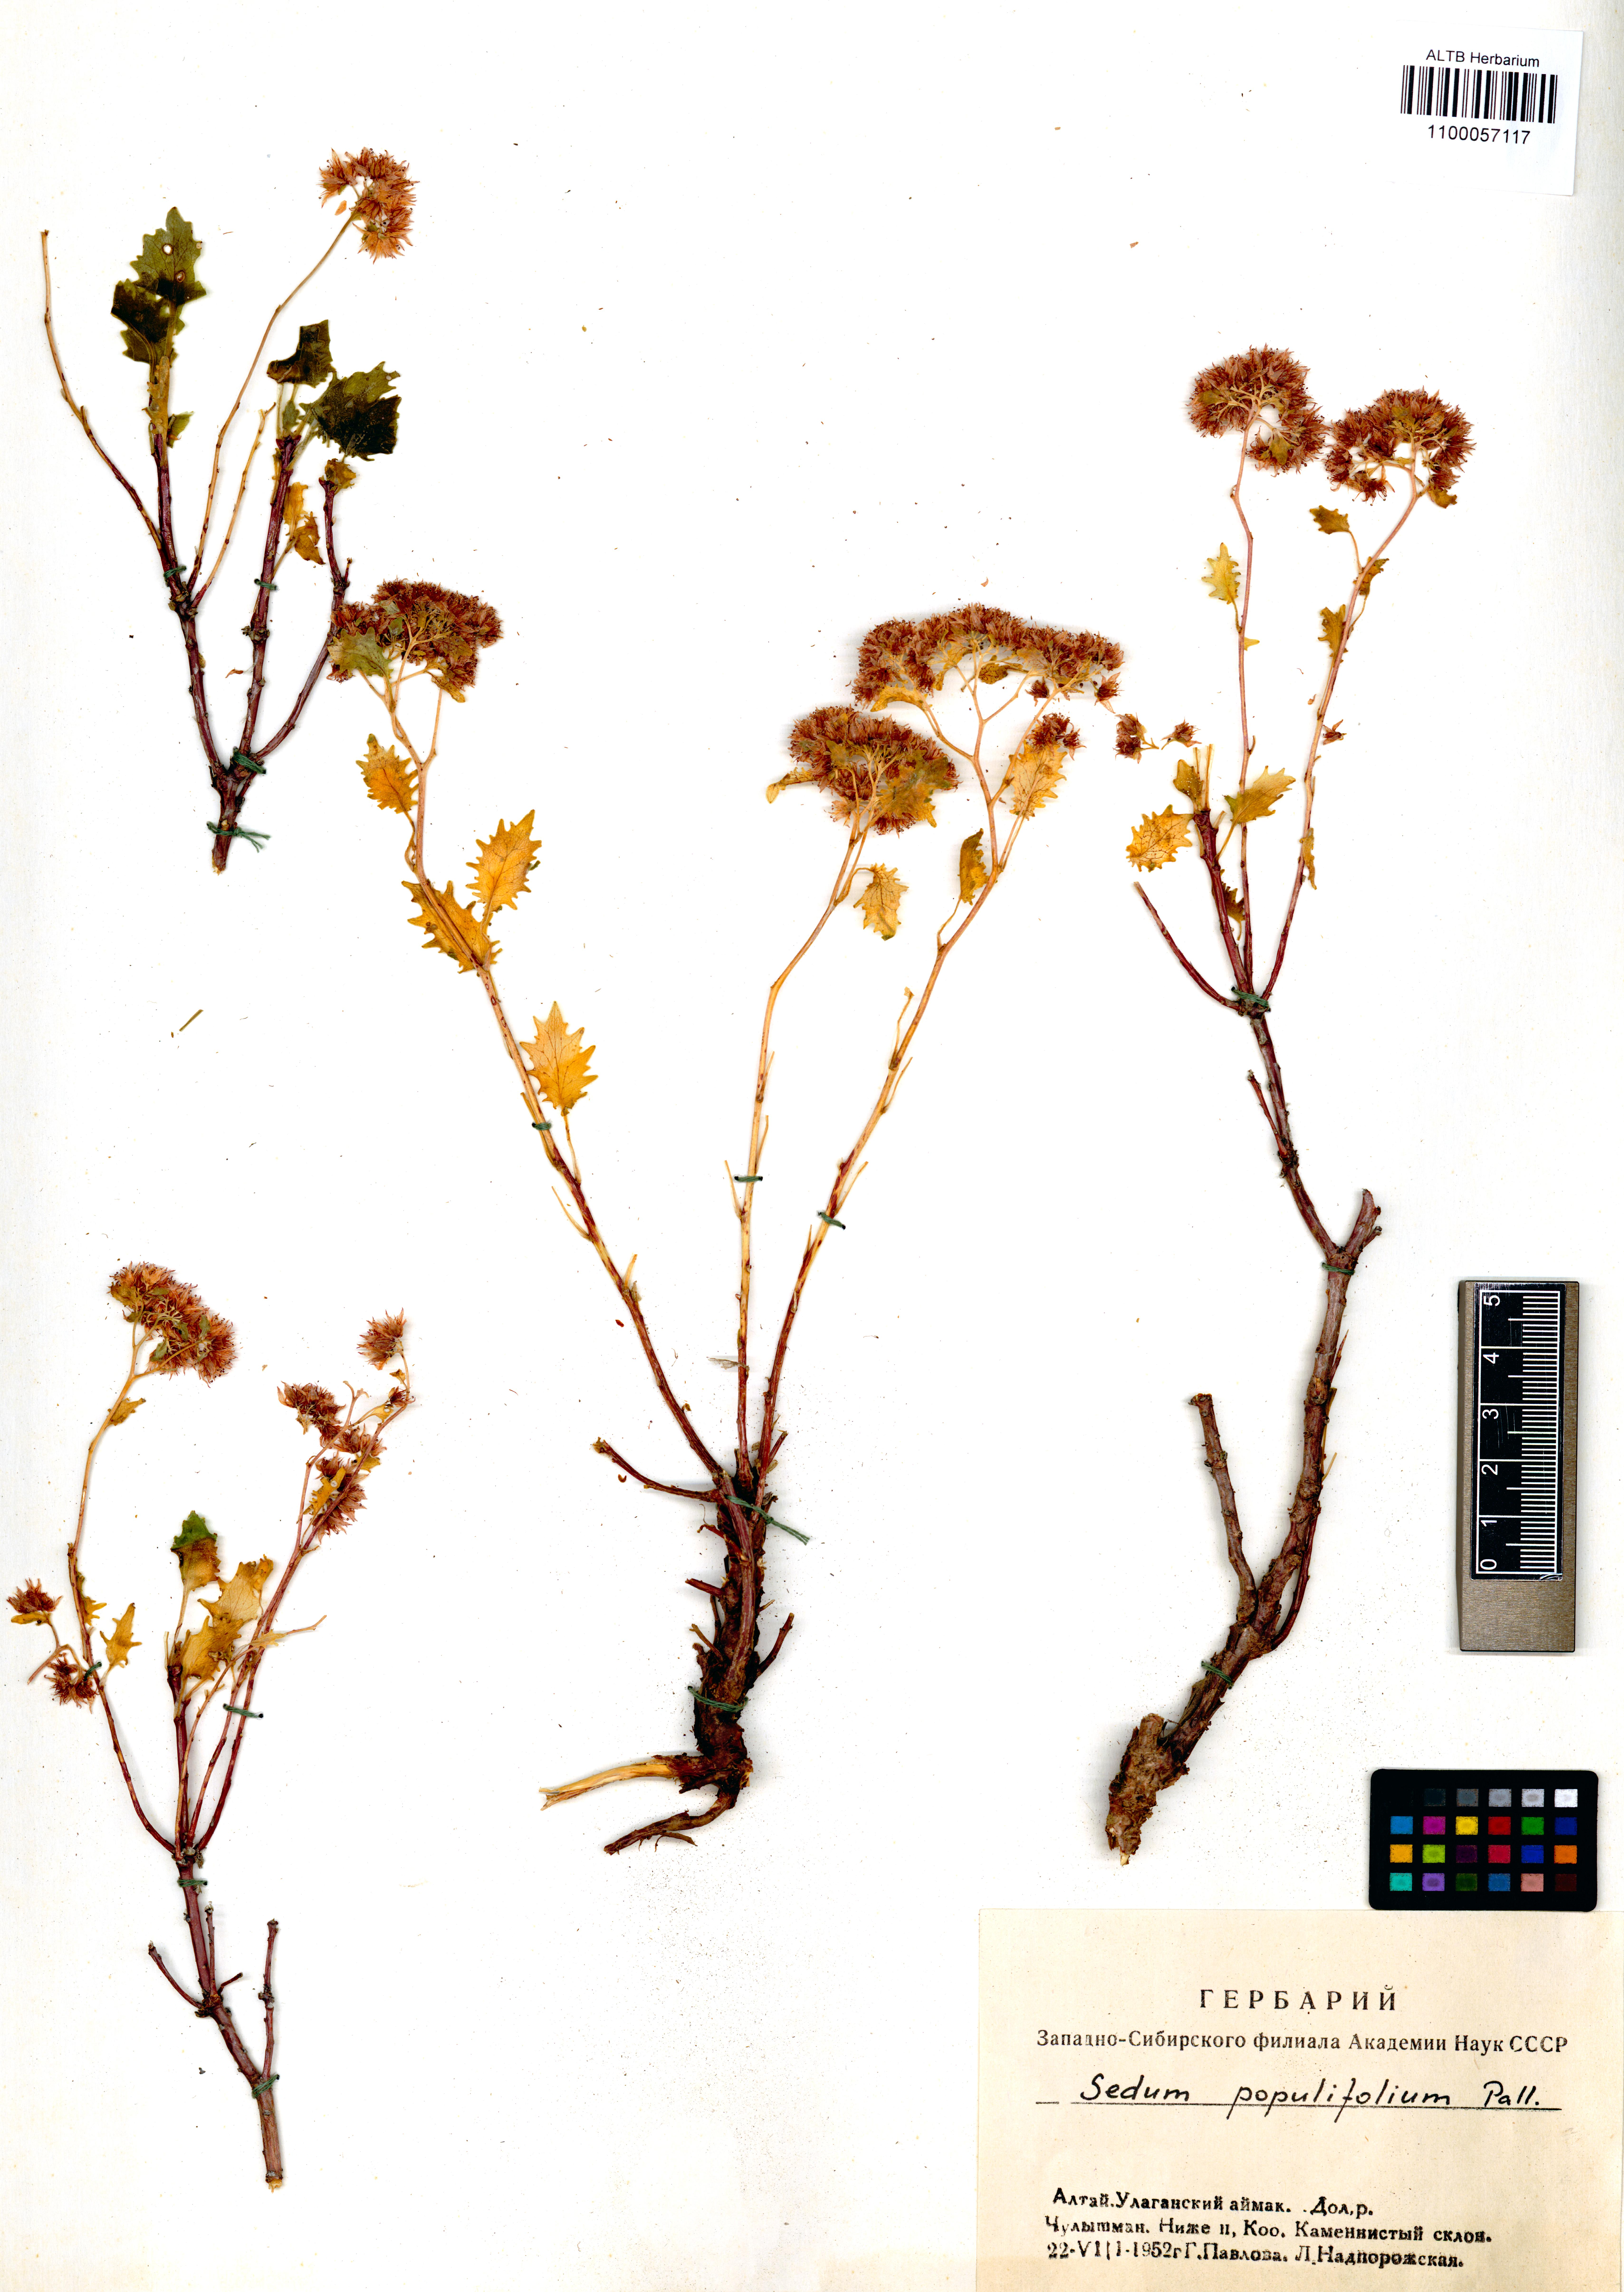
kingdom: Plantae
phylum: Tracheophyta
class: Magnoliopsida
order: Saxifragales
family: Crassulaceae
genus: Hylotelephium
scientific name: Hylotelephium populifolium
